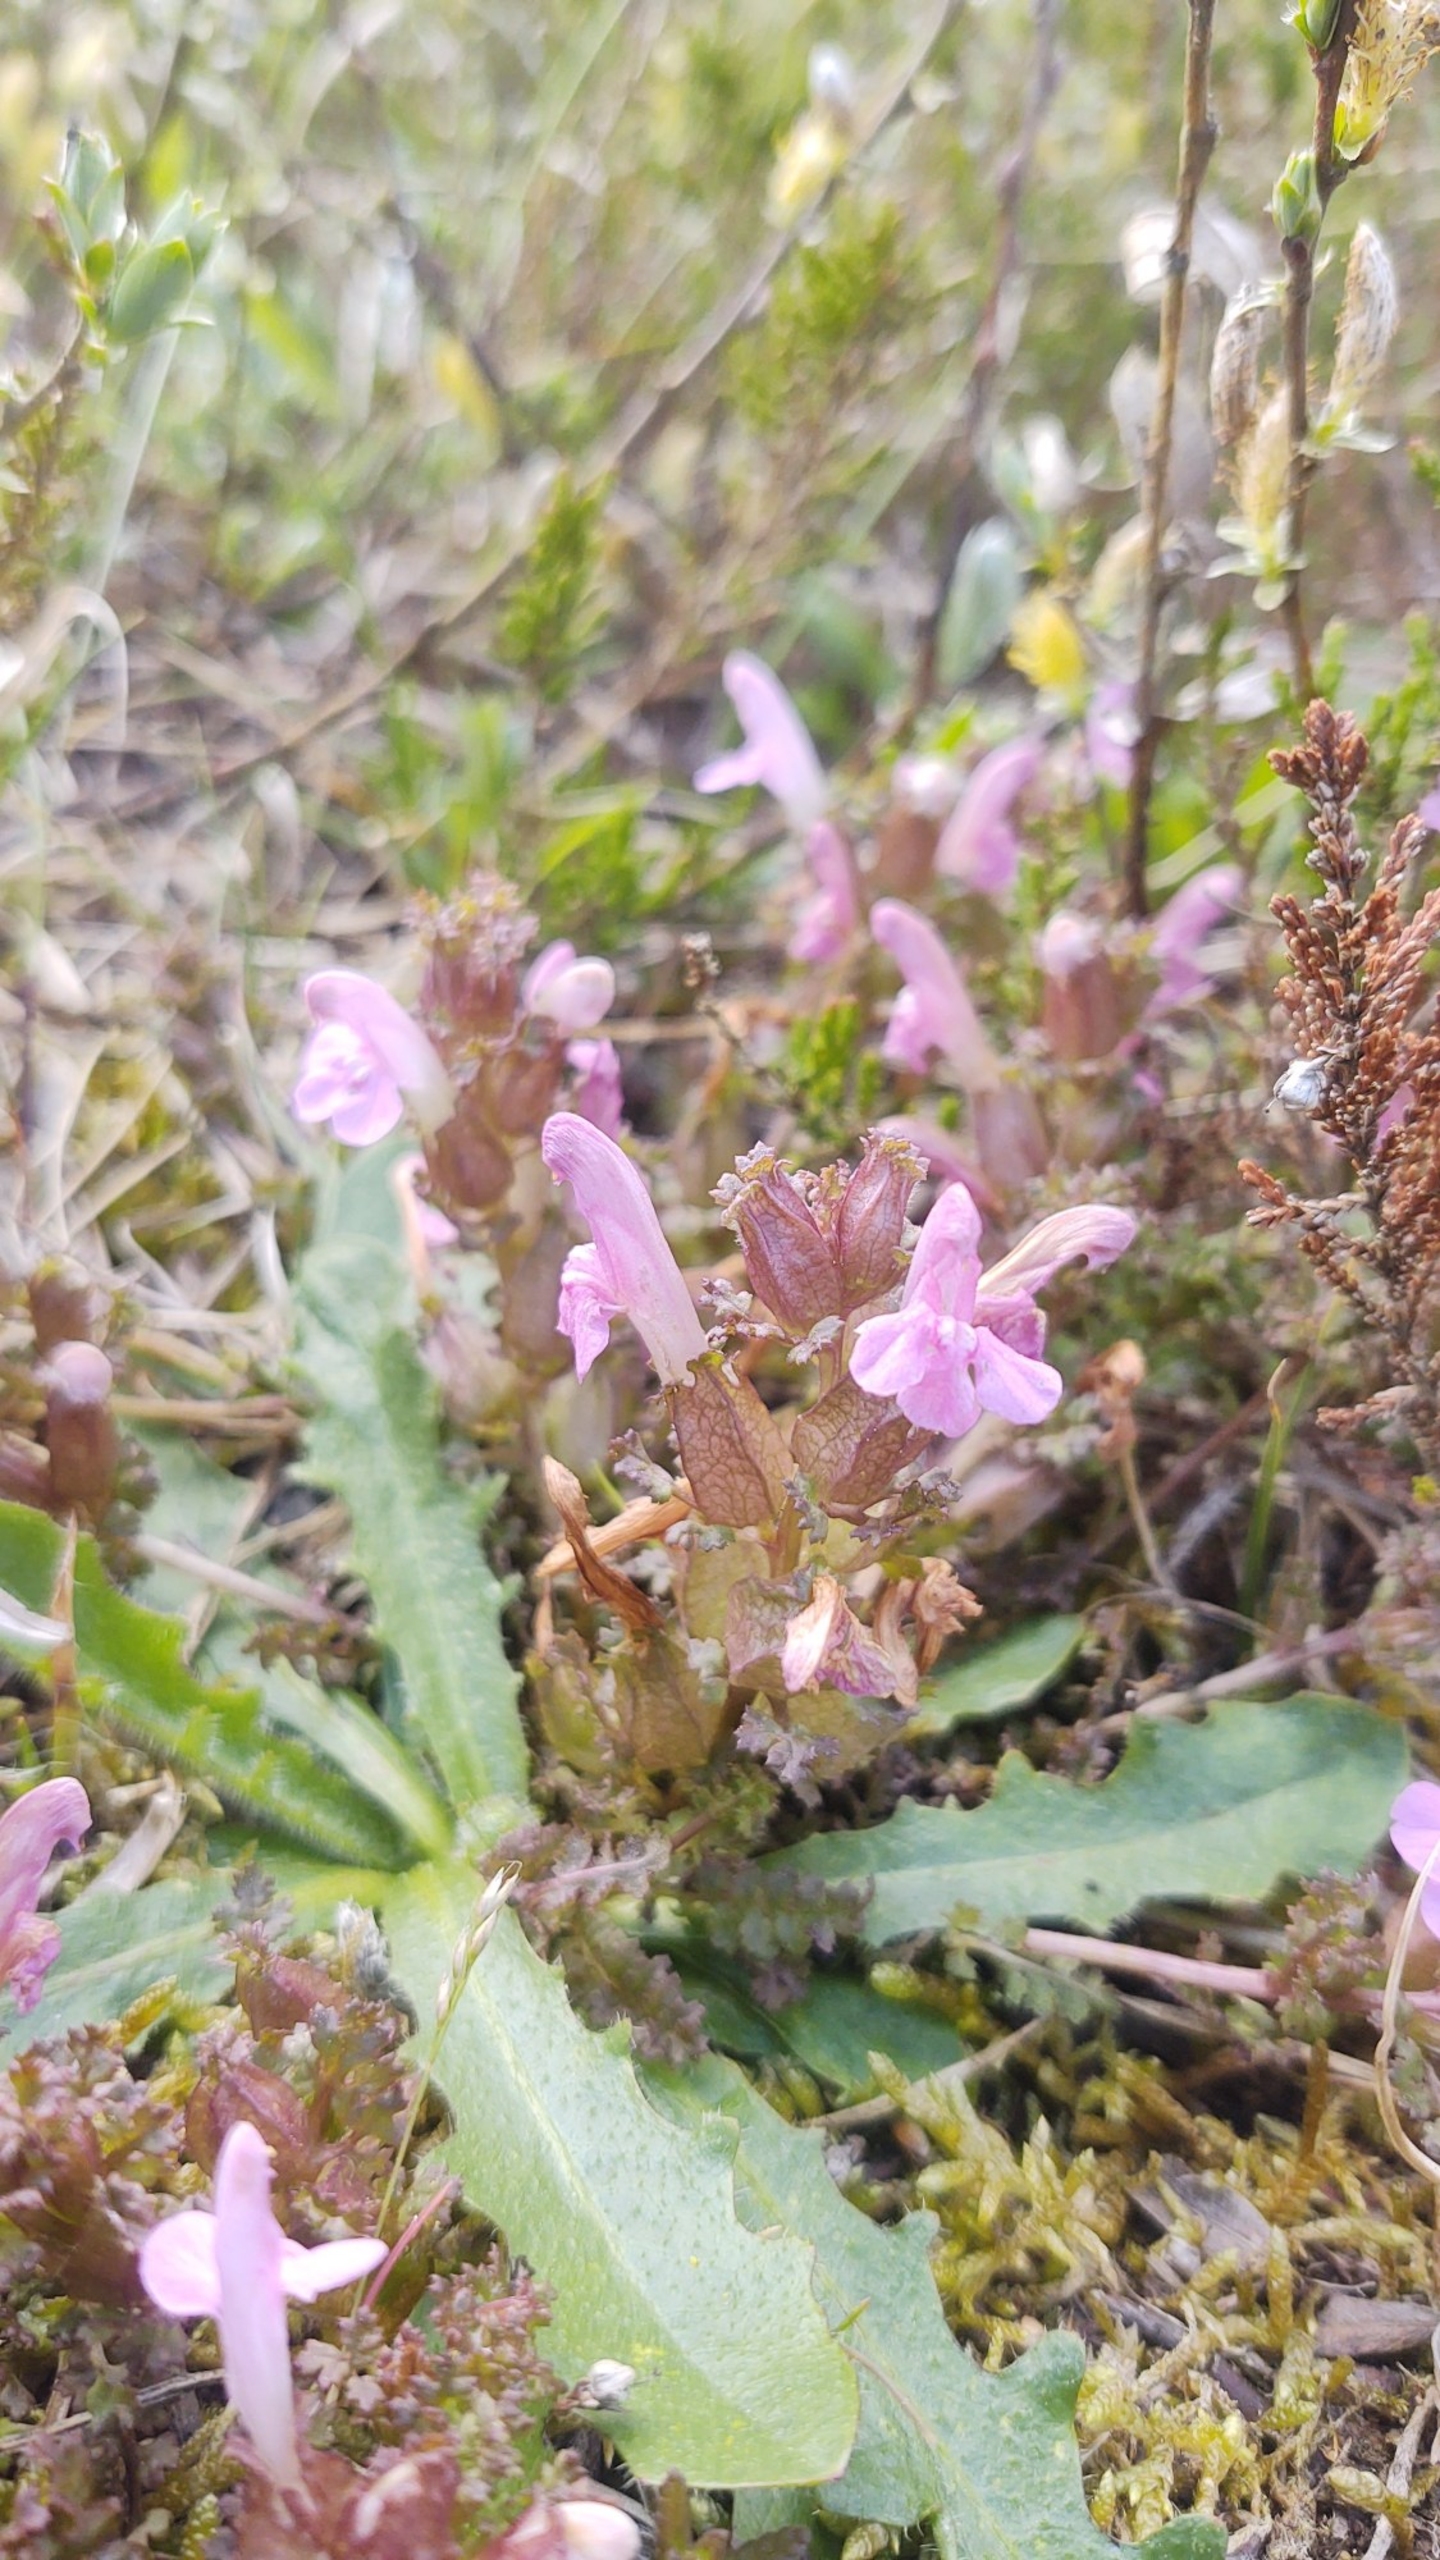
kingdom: Plantae
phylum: Tracheophyta
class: Magnoliopsida
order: Lamiales
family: Orobanchaceae
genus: Pedicularis
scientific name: Pedicularis sylvatica
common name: Mose-troldurt
